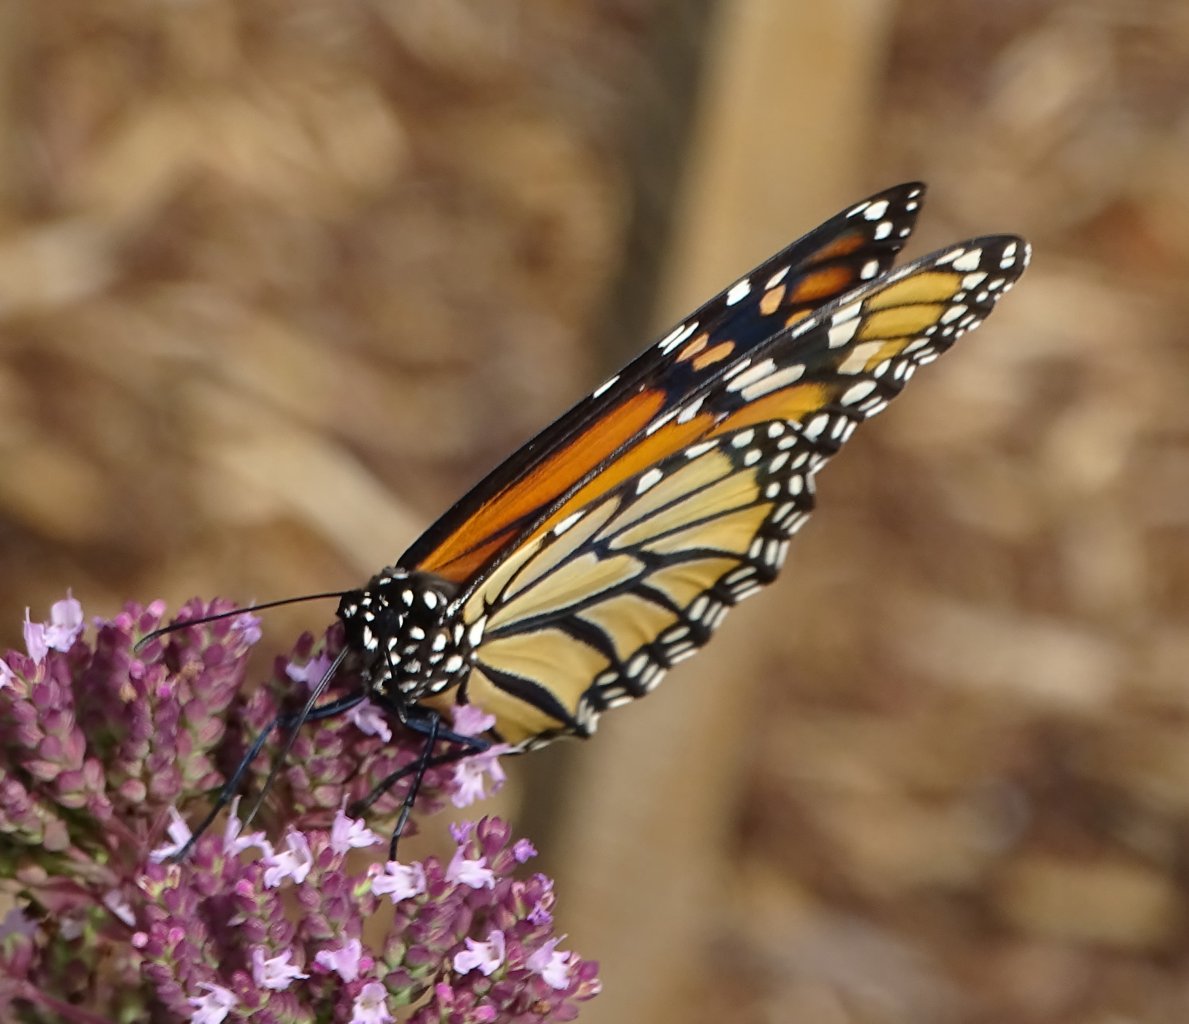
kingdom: Animalia
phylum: Arthropoda
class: Insecta
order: Lepidoptera
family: Nymphalidae
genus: Danaus
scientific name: Danaus plexippus
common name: Monarch
